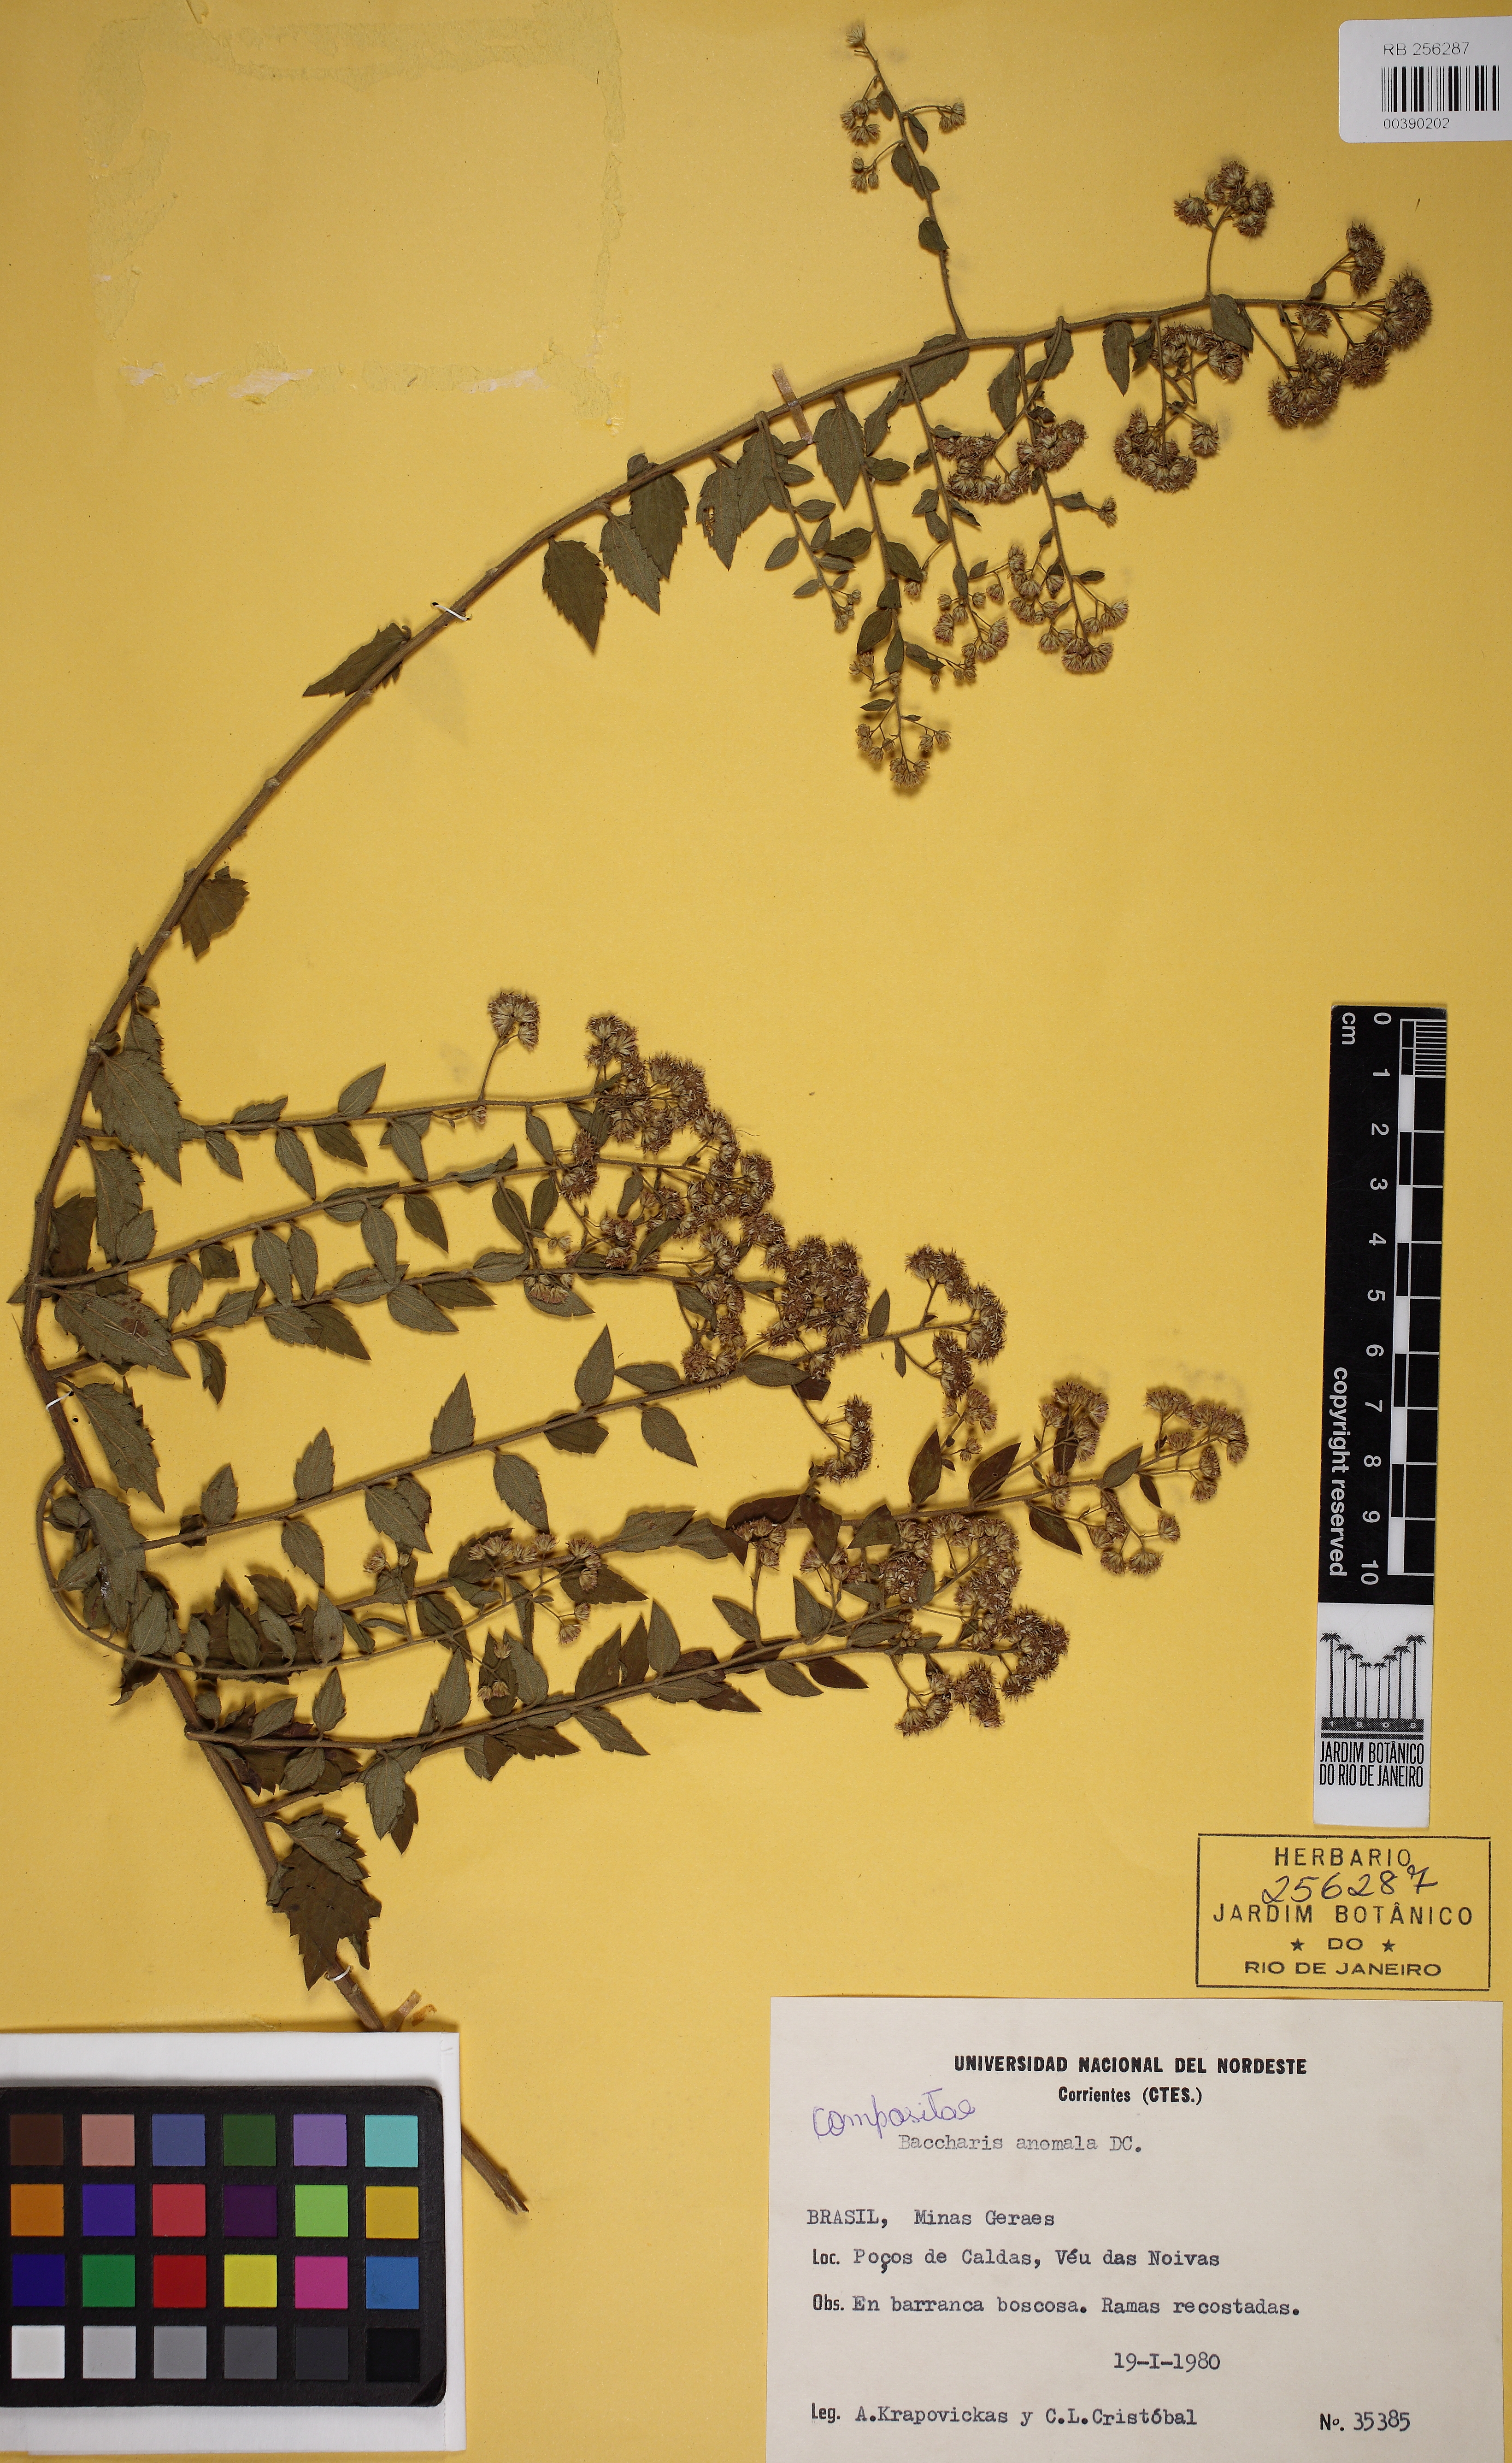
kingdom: Plantae
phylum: Tracheophyta
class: Magnoliopsida
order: Asterales
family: Asteraceae
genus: Baccharis
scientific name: Baccharis anomala
